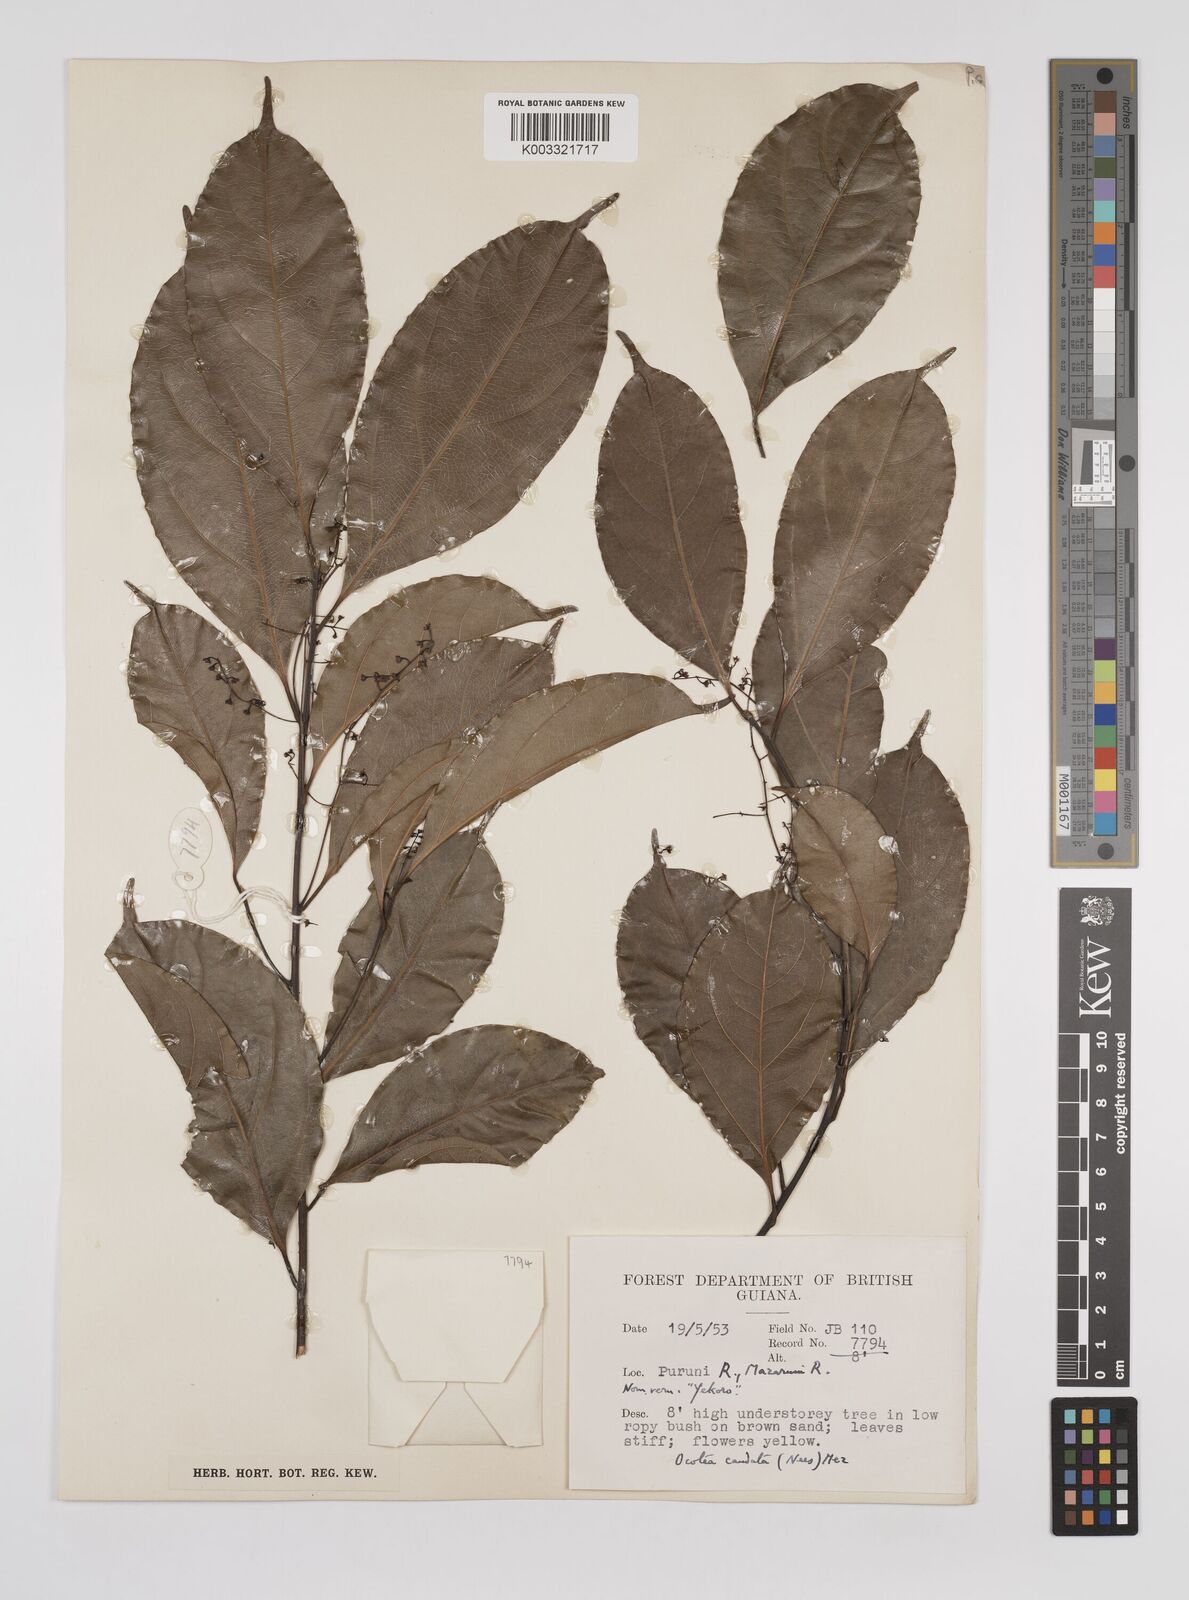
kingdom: Plantae
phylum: Tracheophyta
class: Magnoliopsida
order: Laurales
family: Lauraceae
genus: Ocotea
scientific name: Ocotea leptobotra
